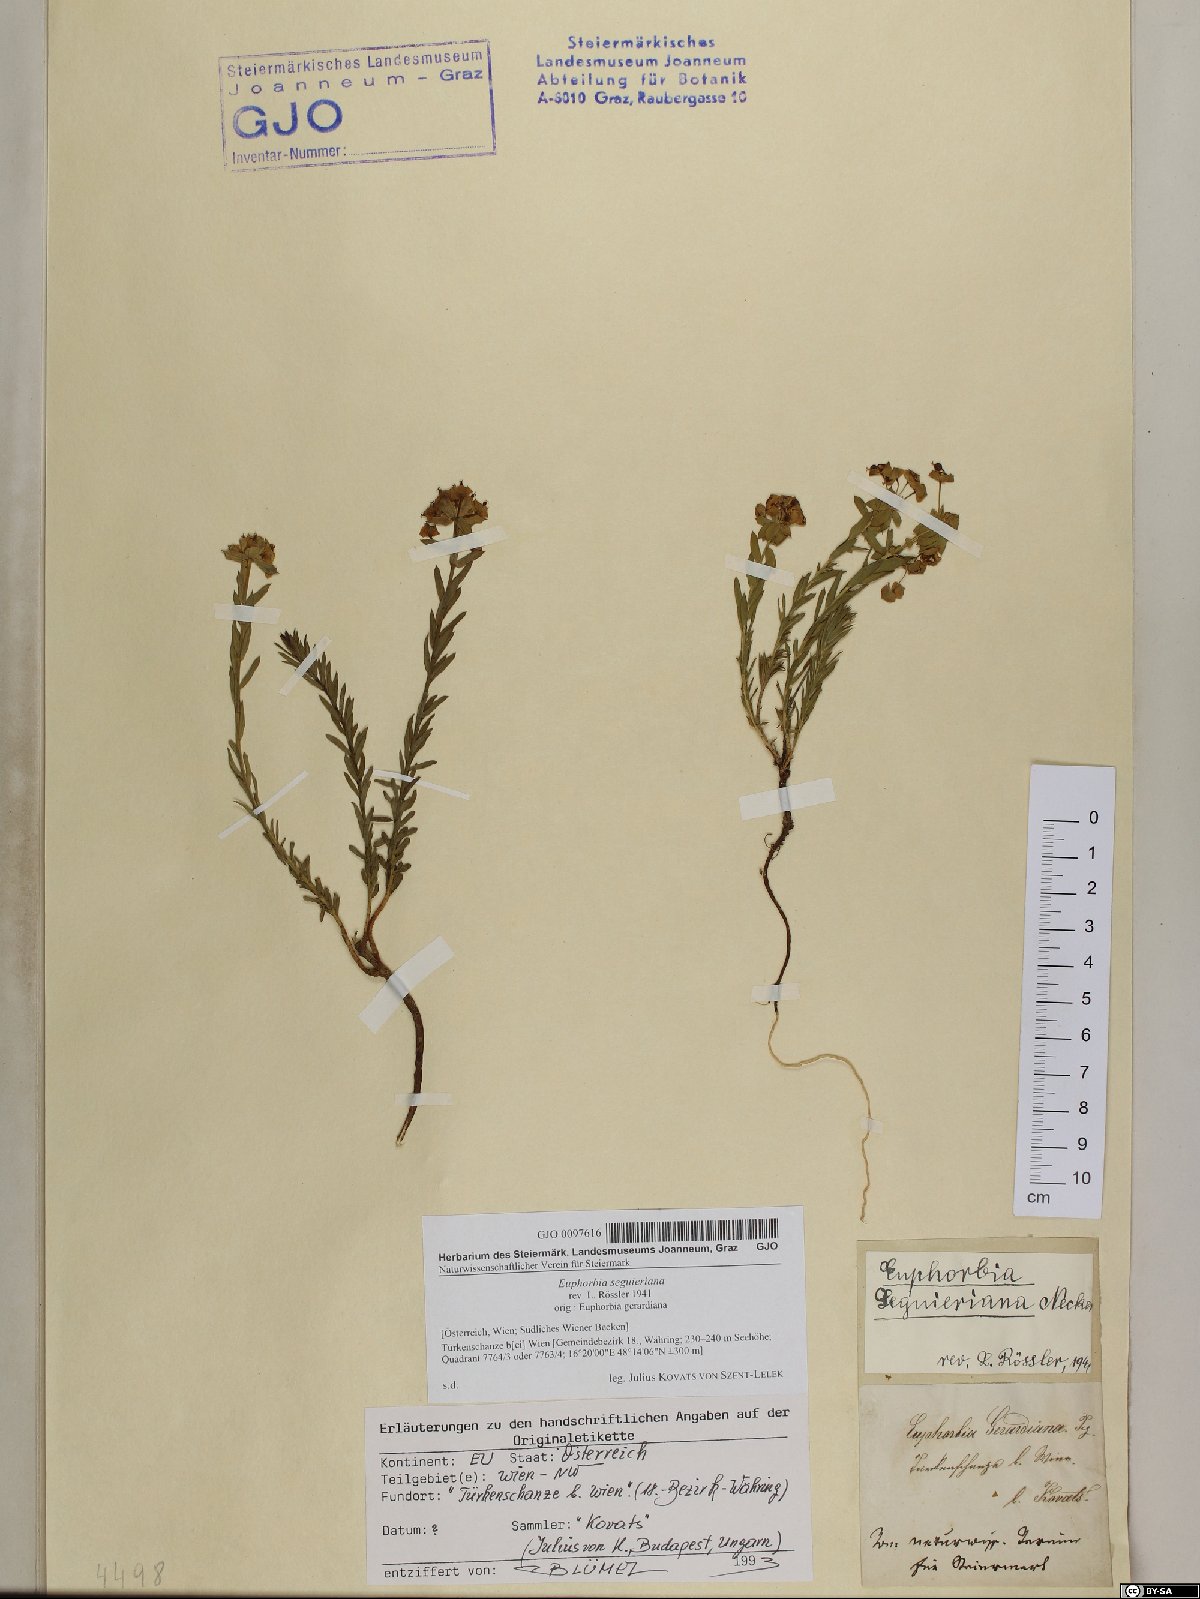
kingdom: Plantae
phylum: Tracheophyta
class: Magnoliopsida
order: Malpighiales
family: Euphorbiaceae
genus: Euphorbia
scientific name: Euphorbia seguieriana
